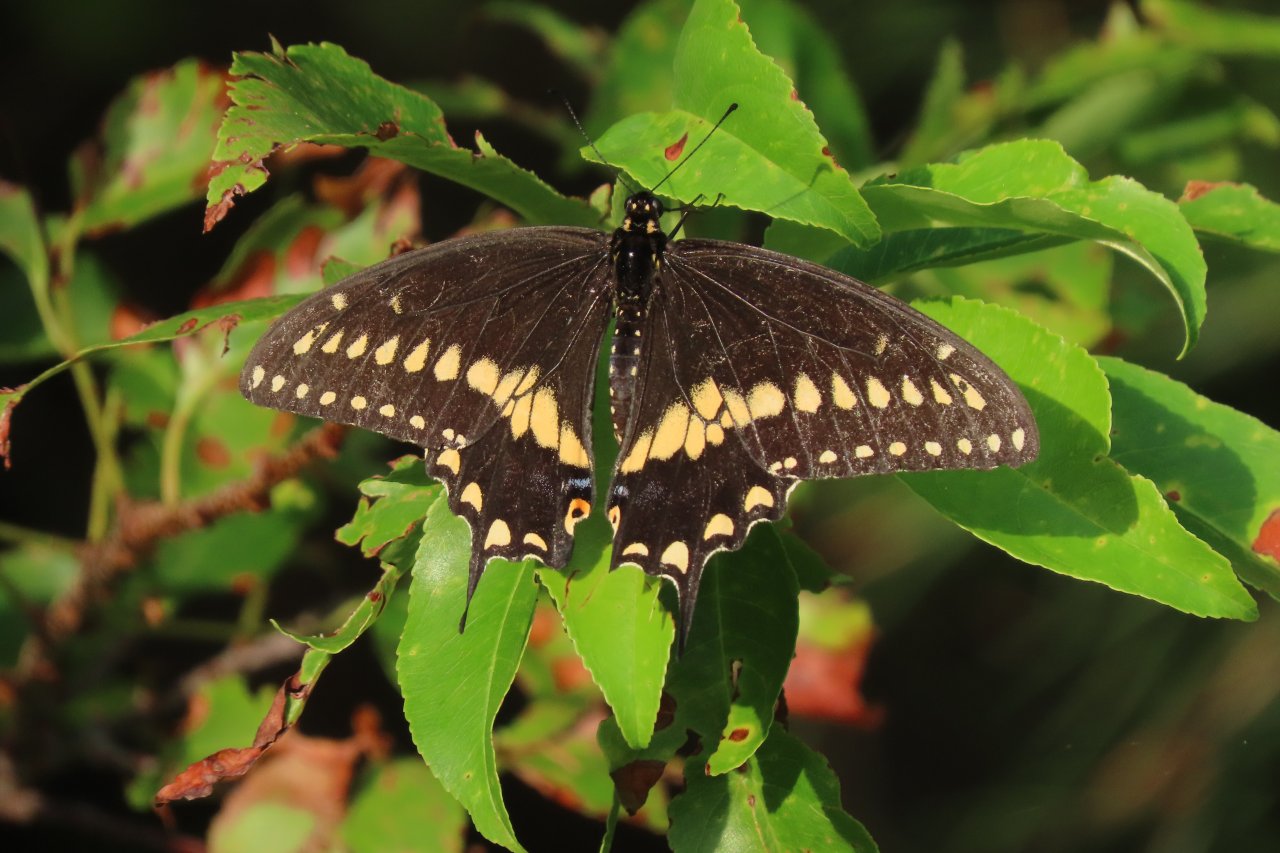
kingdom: Animalia
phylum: Arthropoda
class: Insecta
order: Lepidoptera
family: Papilionidae
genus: Papilio
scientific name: Papilio polyxenes
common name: Black Swallowtail
